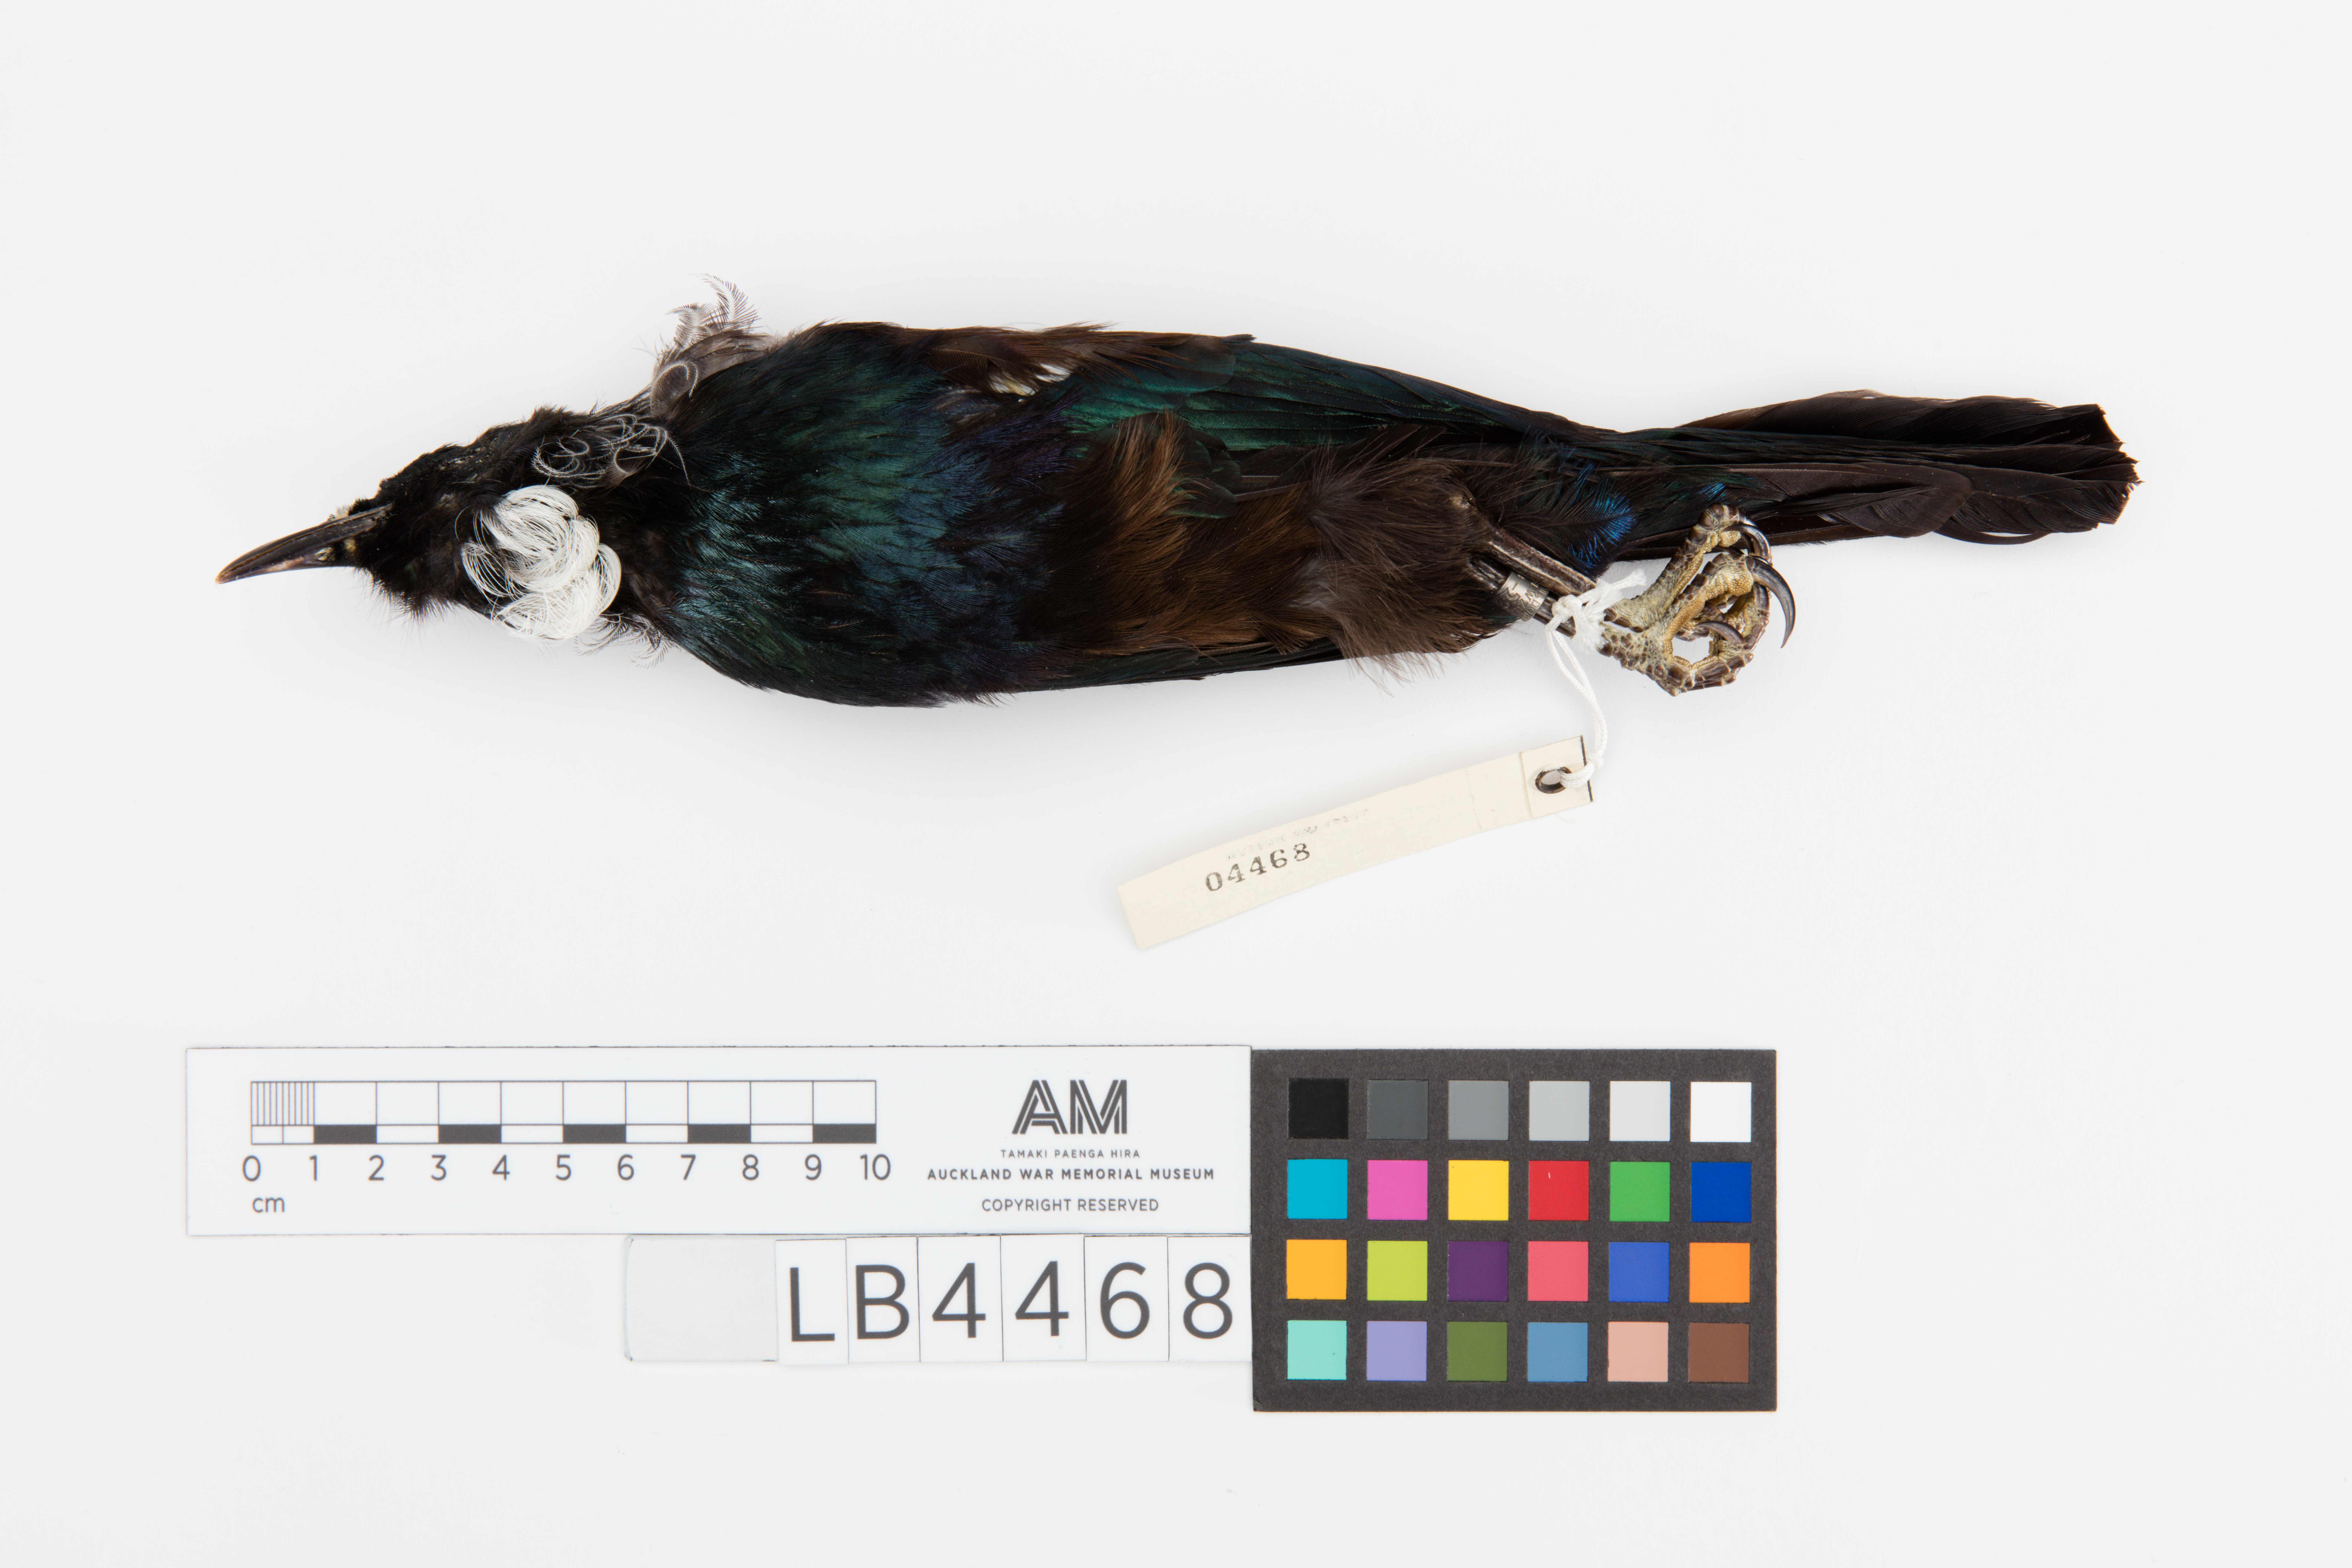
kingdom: Animalia
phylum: Chordata
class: Aves
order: Passeriformes
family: Meliphagidae
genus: Prosthemadera
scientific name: Prosthemadera novaeseelandiae
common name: Tui
